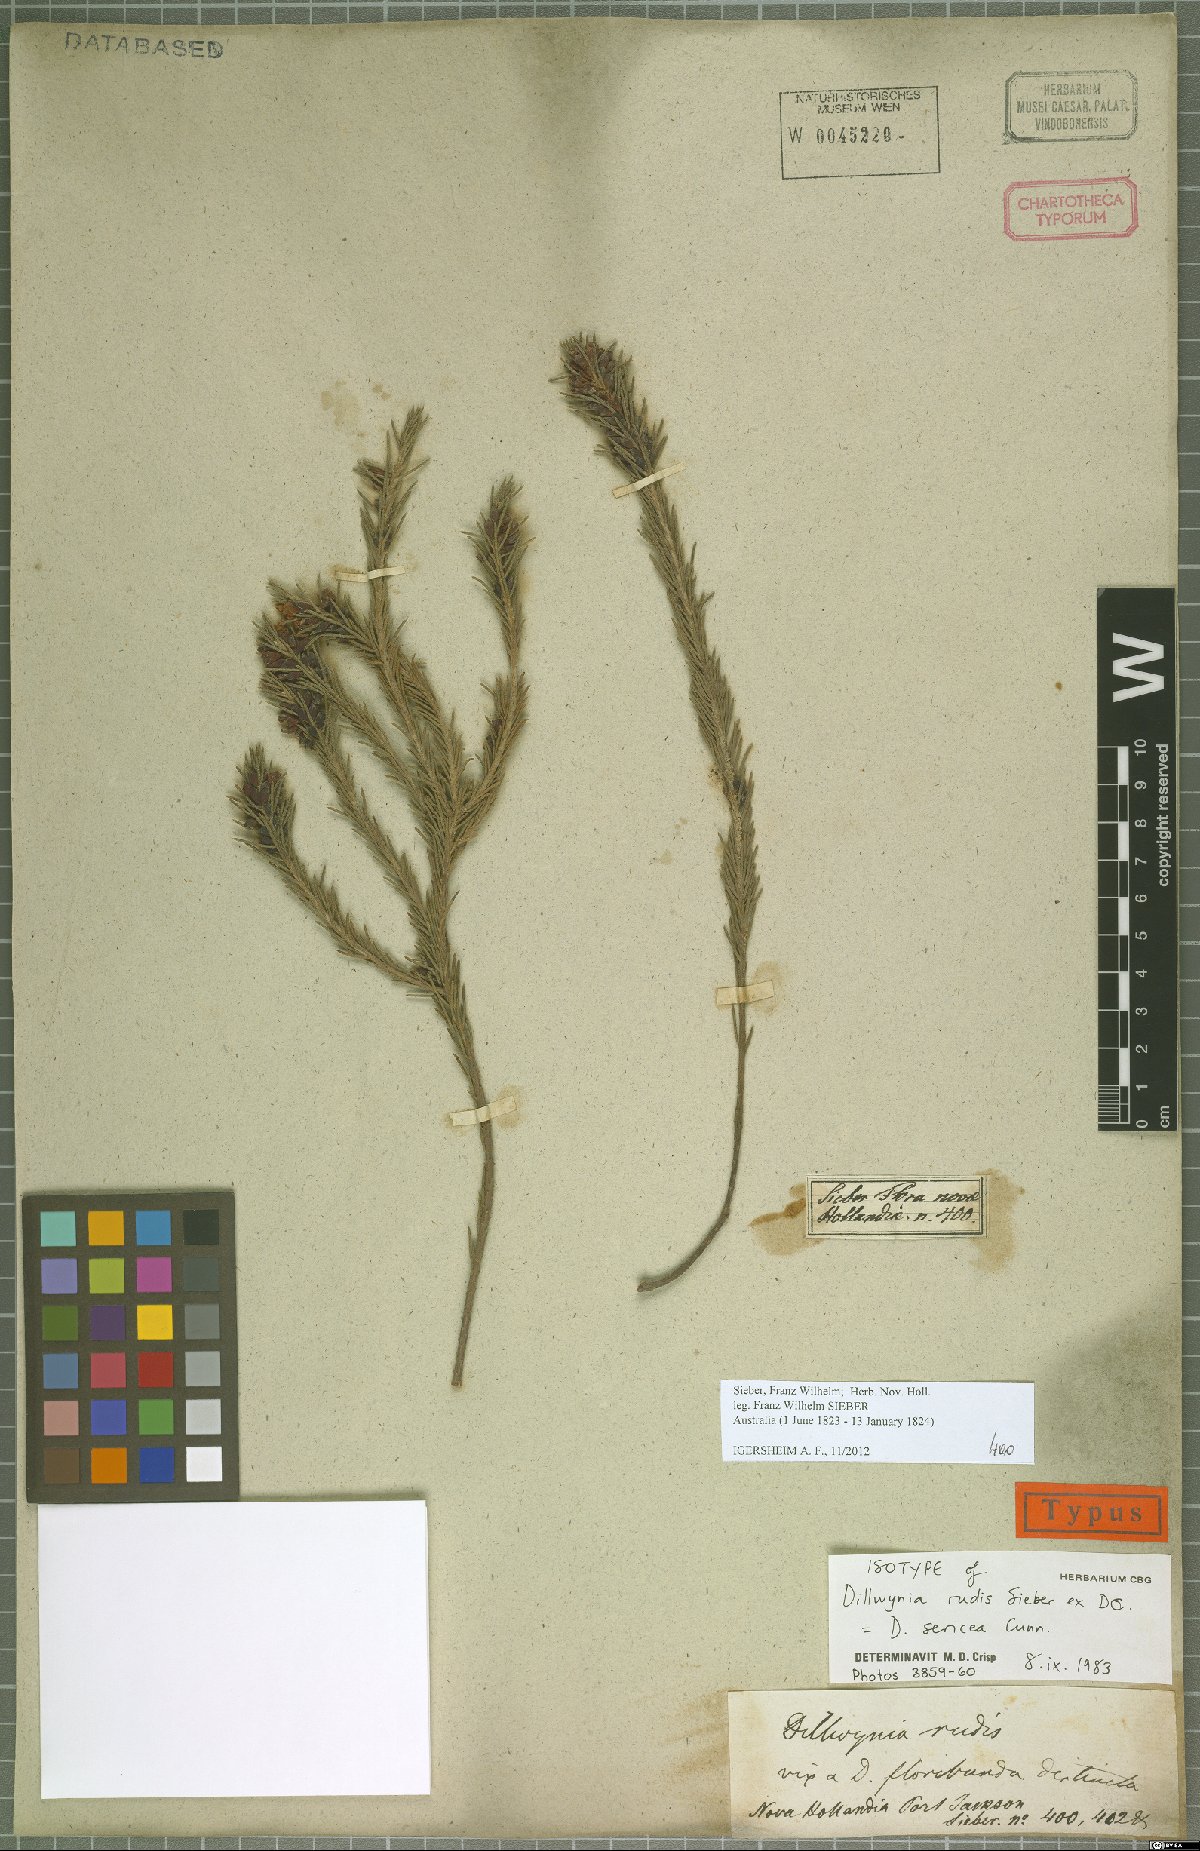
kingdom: Plantae
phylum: Tracheophyta
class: Magnoliopsida
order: Fabales
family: Fabaceae
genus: Dillwynia
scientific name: Dillwynia sericea
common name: Showy parrot-pea
